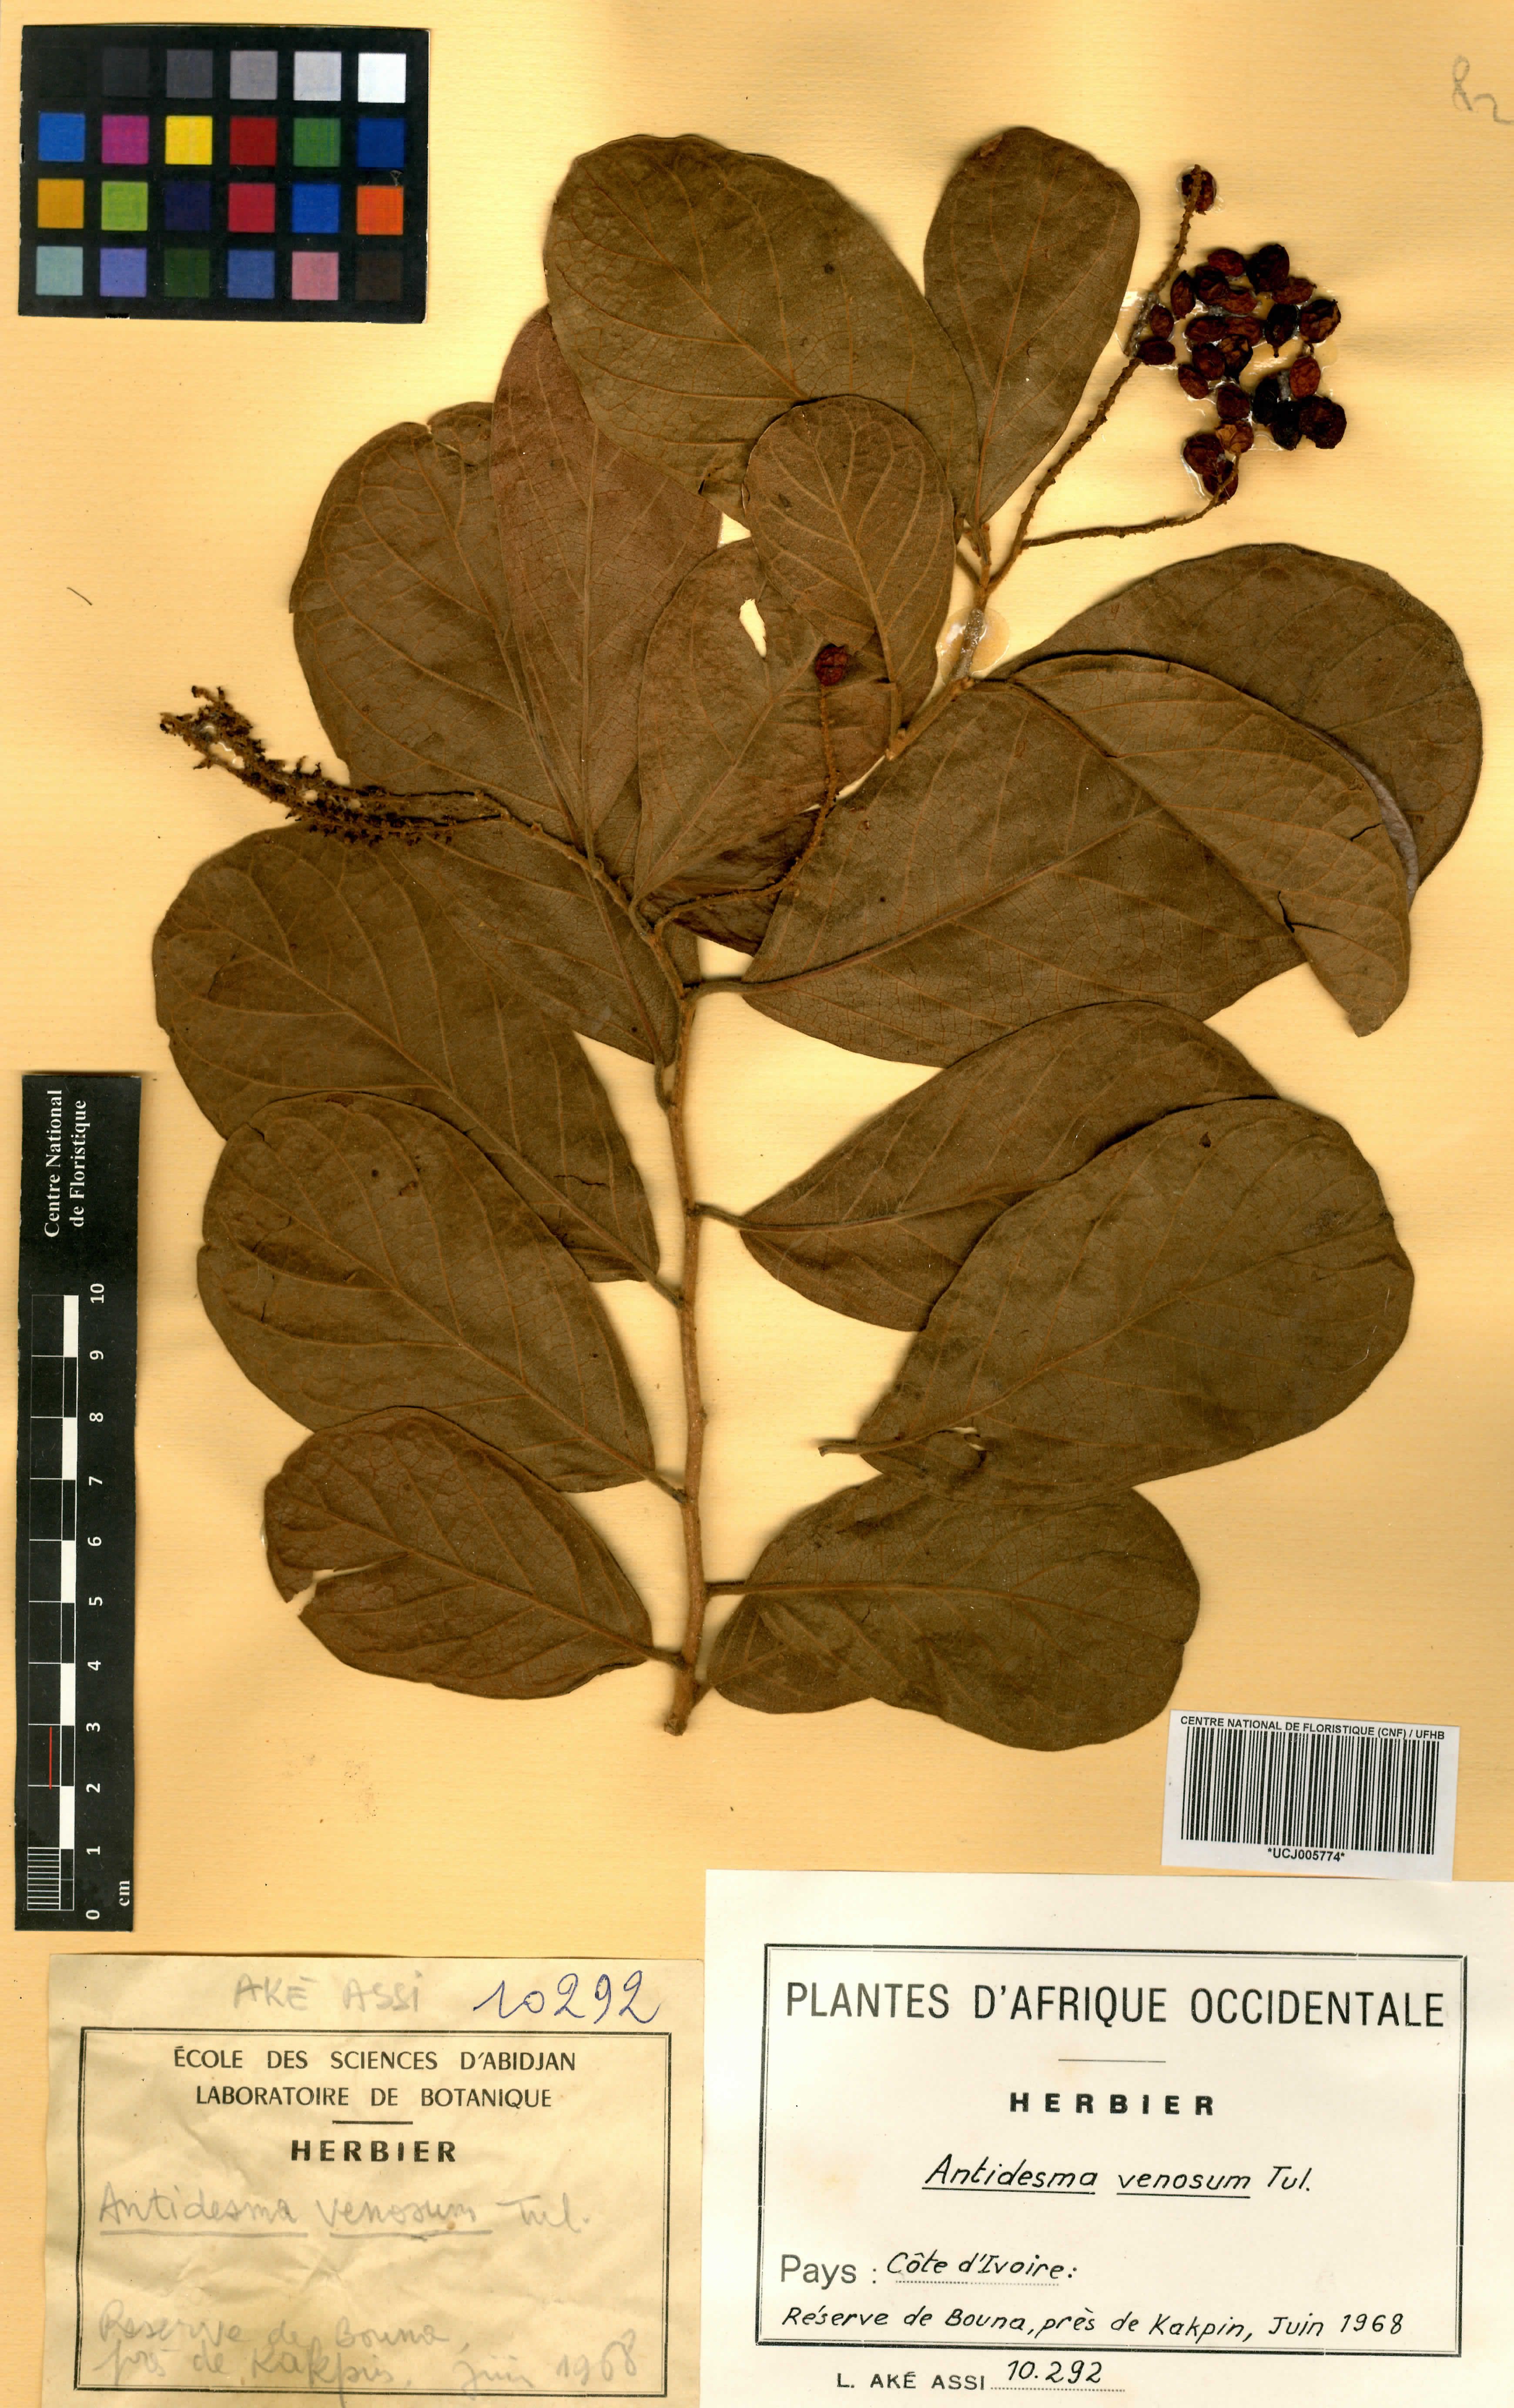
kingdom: Plantae
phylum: Tracheophyta
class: Magnoliopsida
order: Malpighiales
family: Phyllanthaceae
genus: Antidesma
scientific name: Antidesma venosum
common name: Tassel-berry
